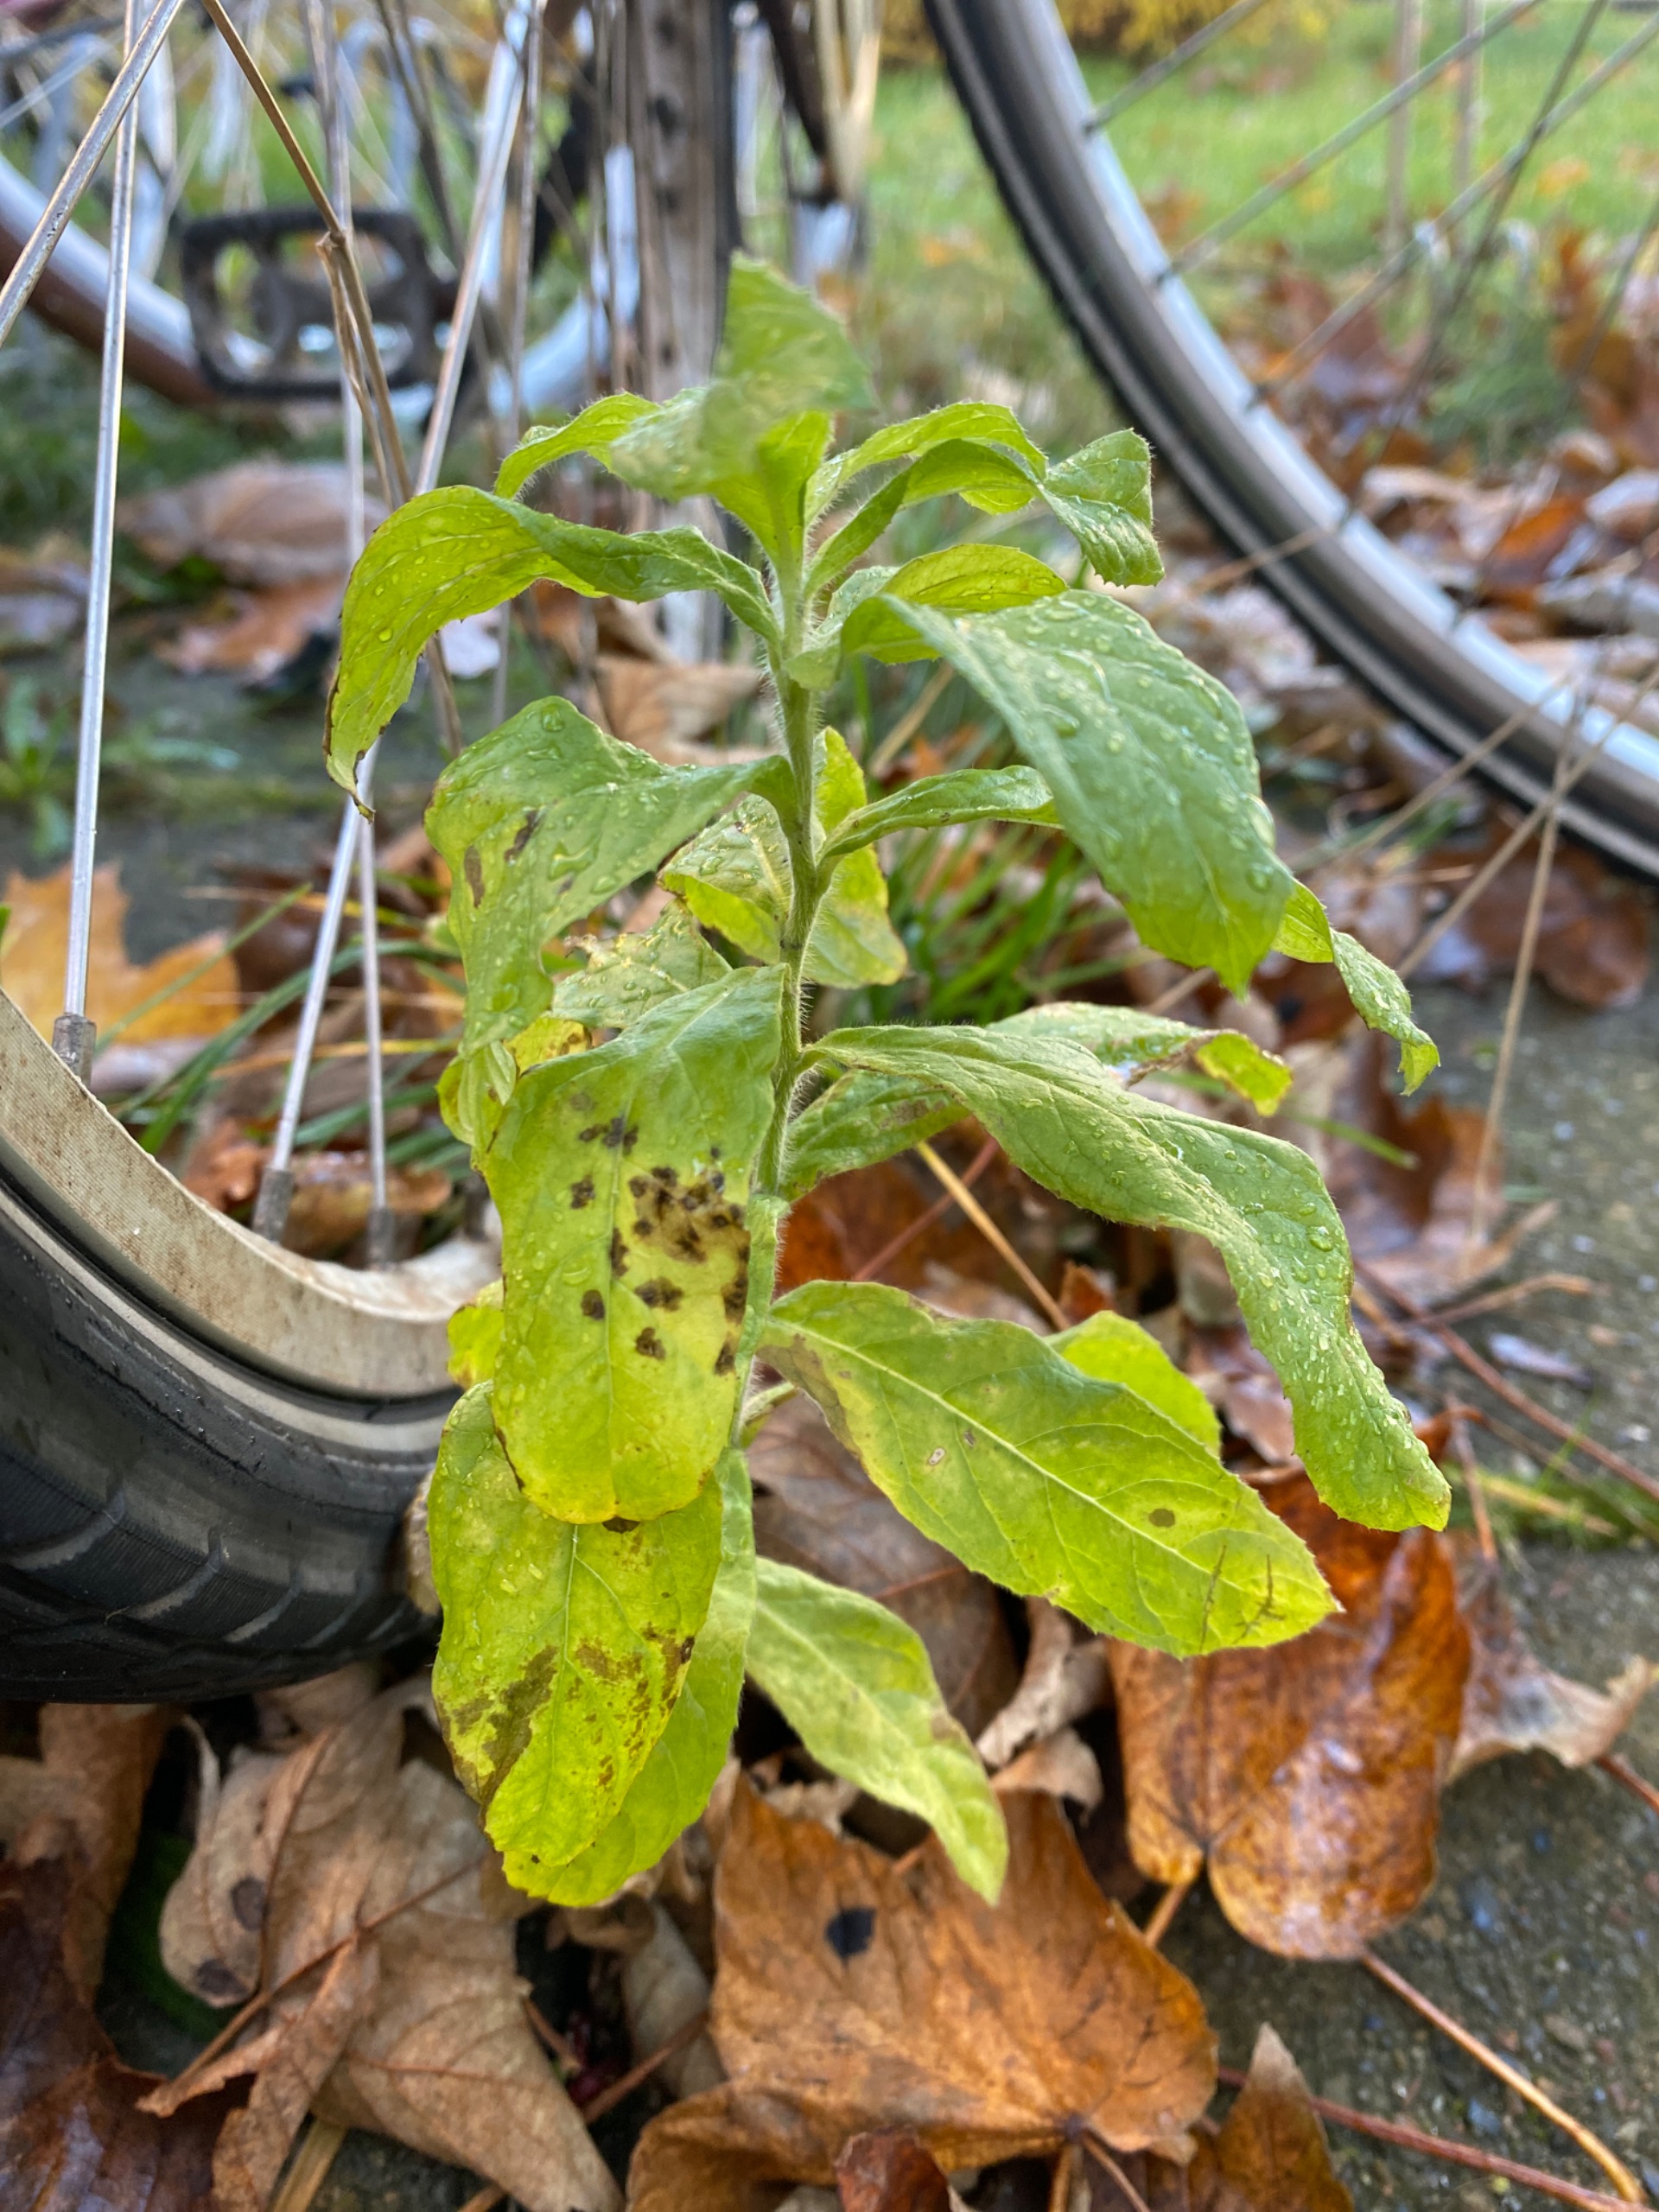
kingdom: Plantae
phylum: Tracheophyta
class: Magnoliopsida
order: Myrtales
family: Onagraceae
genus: Epilobium
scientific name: Epilobium hirsutum
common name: Lådden dueurt
